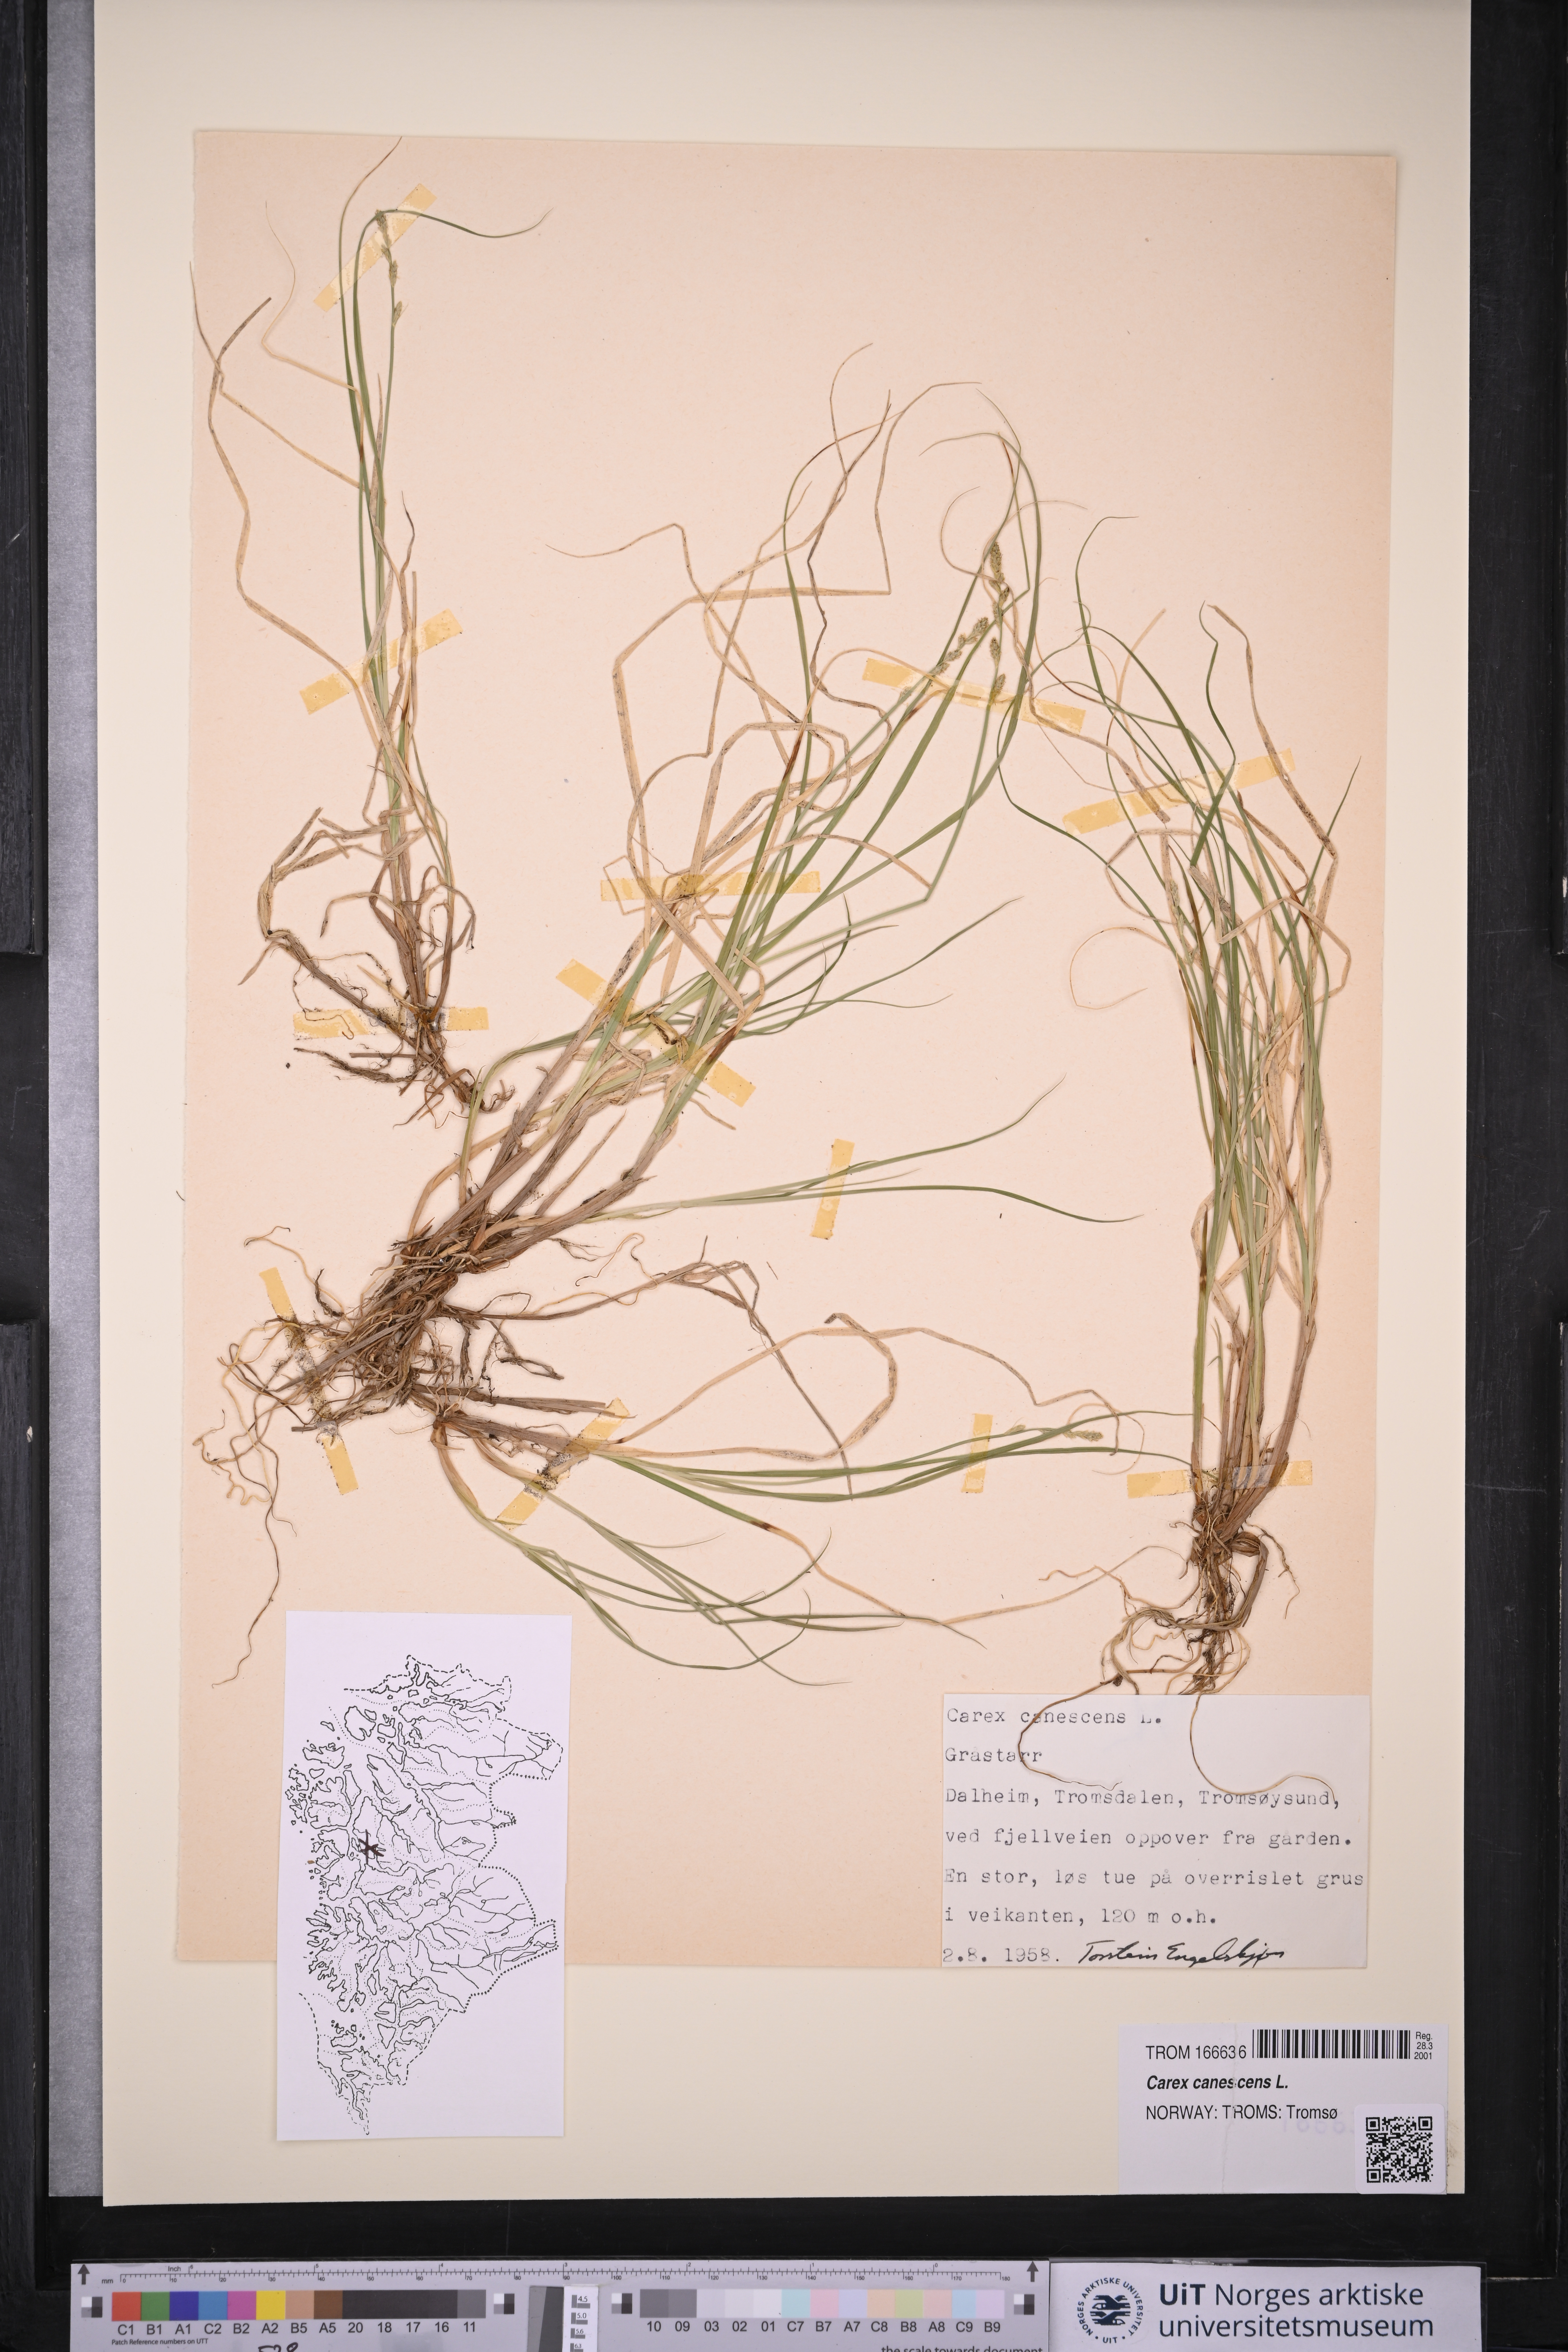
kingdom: Plantae
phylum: Tracheophyta
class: Liliopsida
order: Poales
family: Cyperaceae
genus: Carex
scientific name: Carex canescens
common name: White sedge
